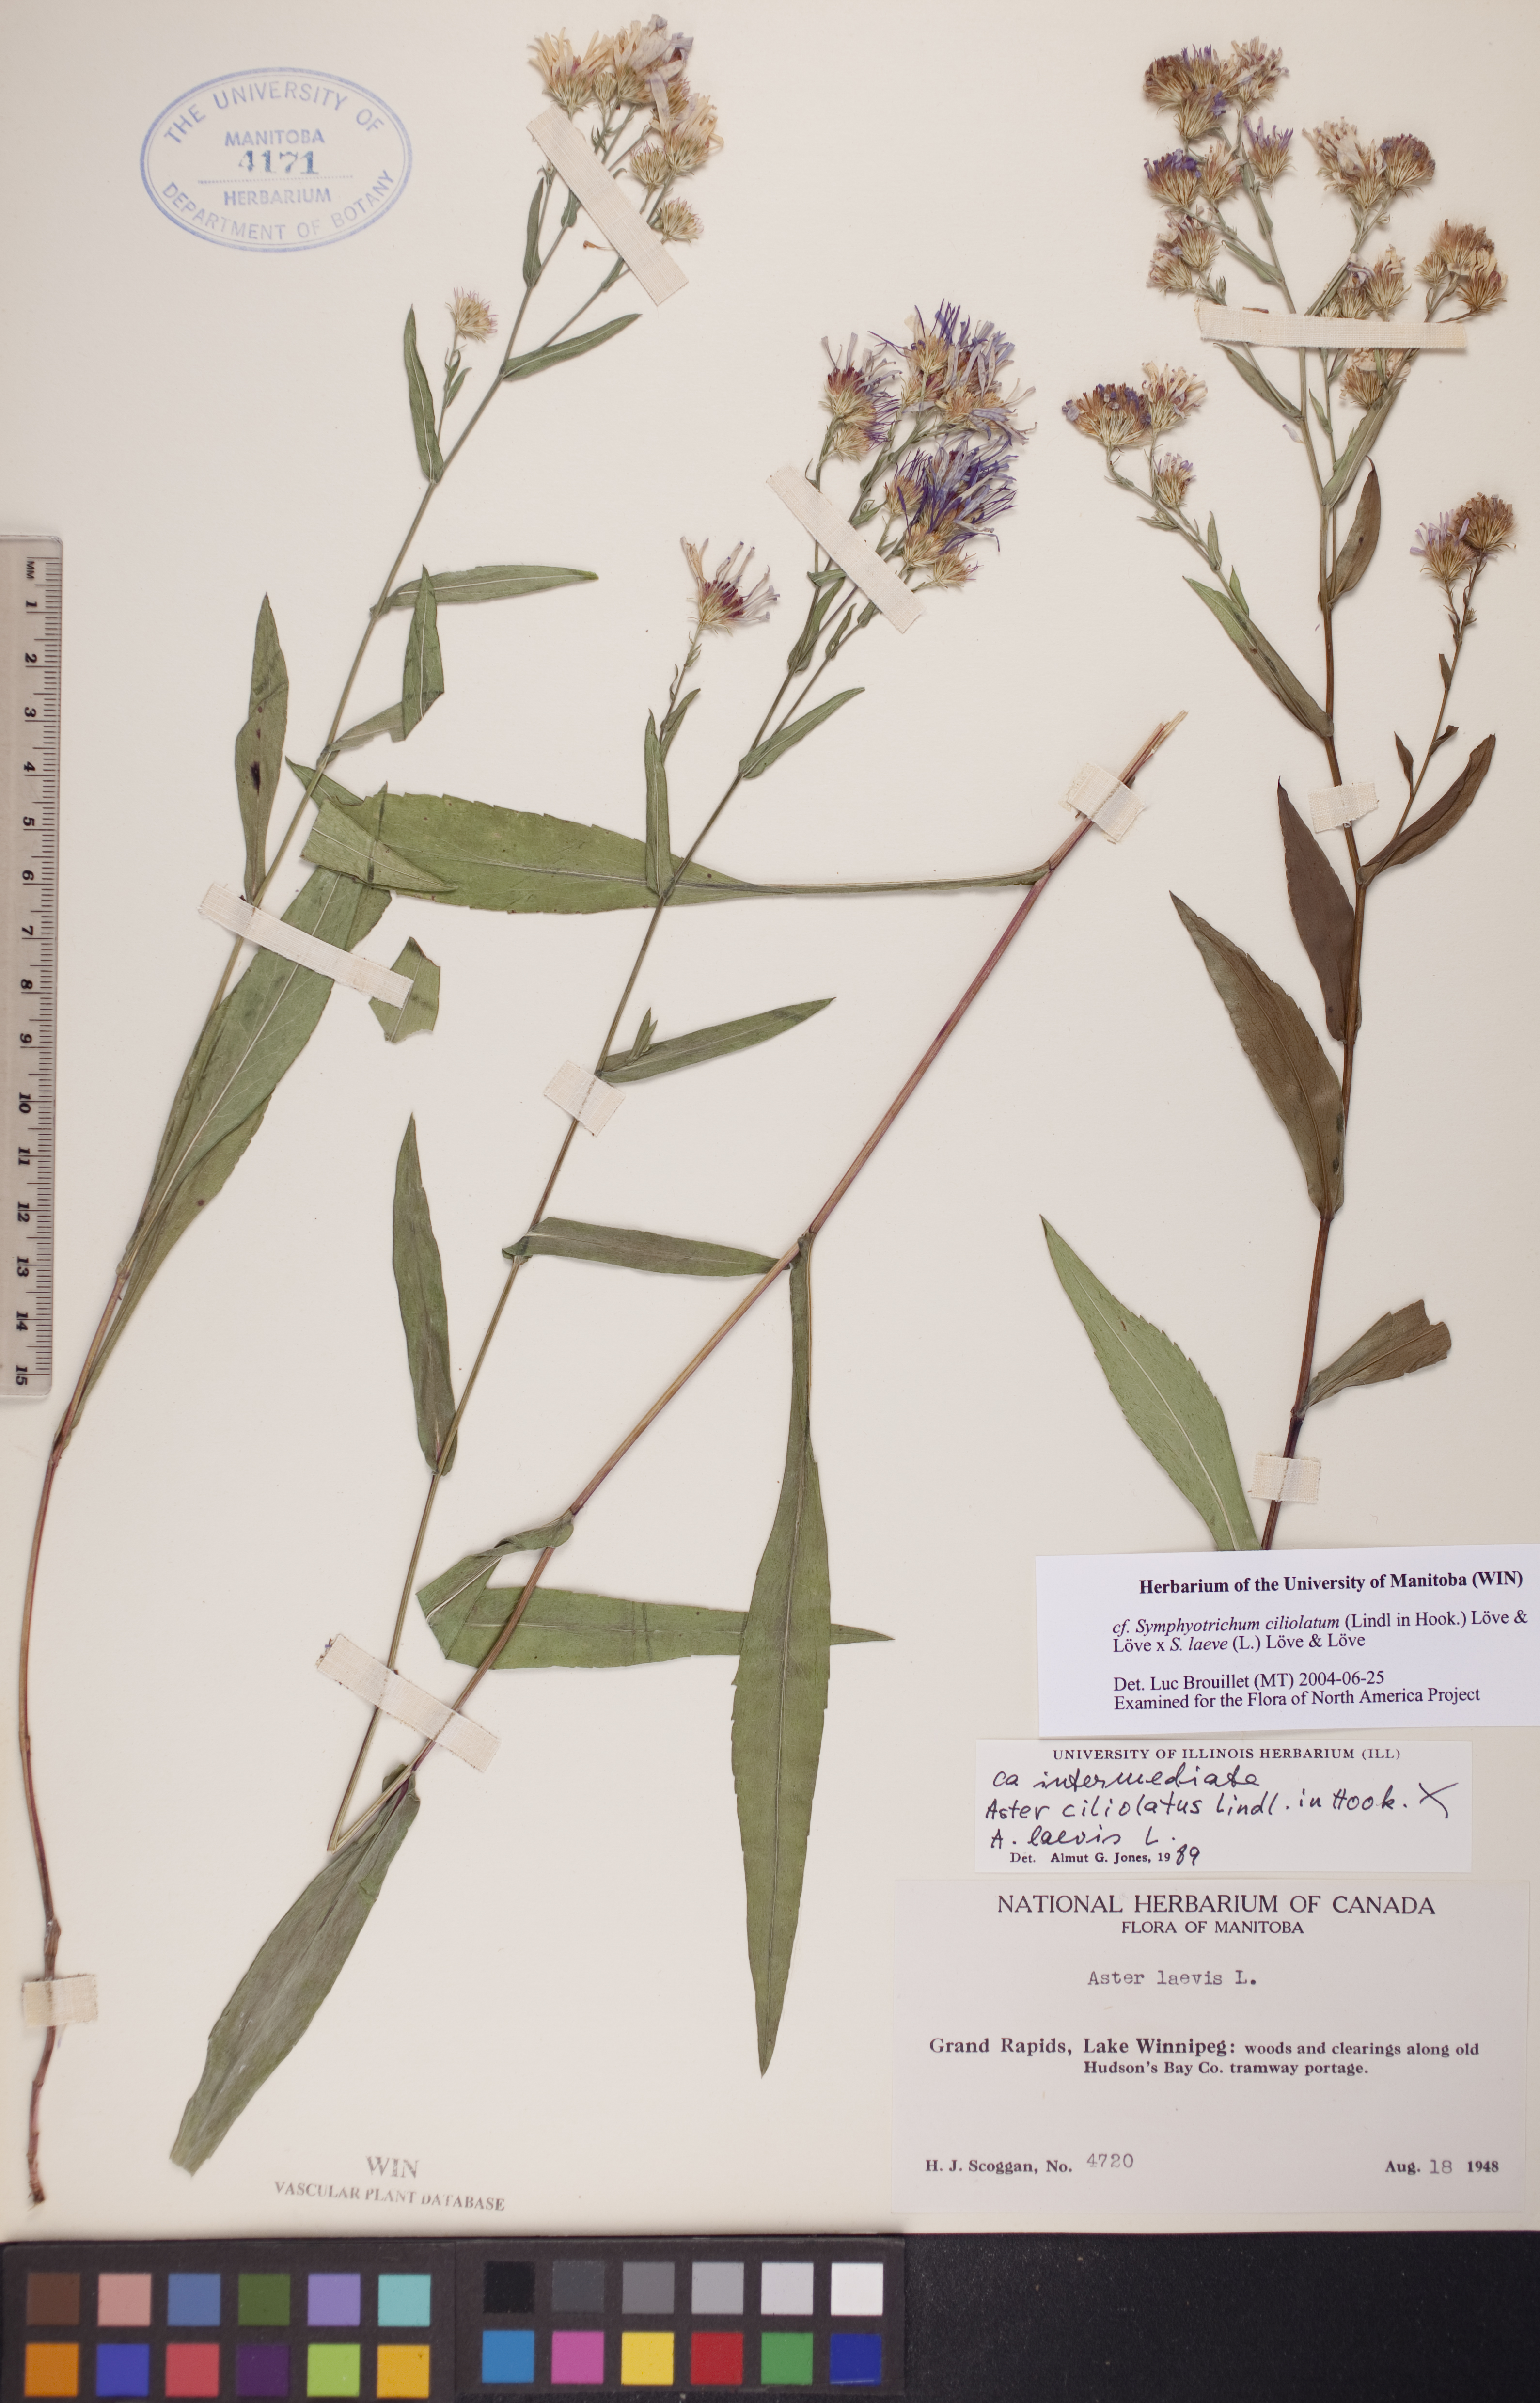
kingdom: Plantae
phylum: Tracheophyta
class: Magnoliopsida
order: Asterales
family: Asteraceae
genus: Symphyotrichum
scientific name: Symphyotrichum laeve
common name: Glaucous aster
